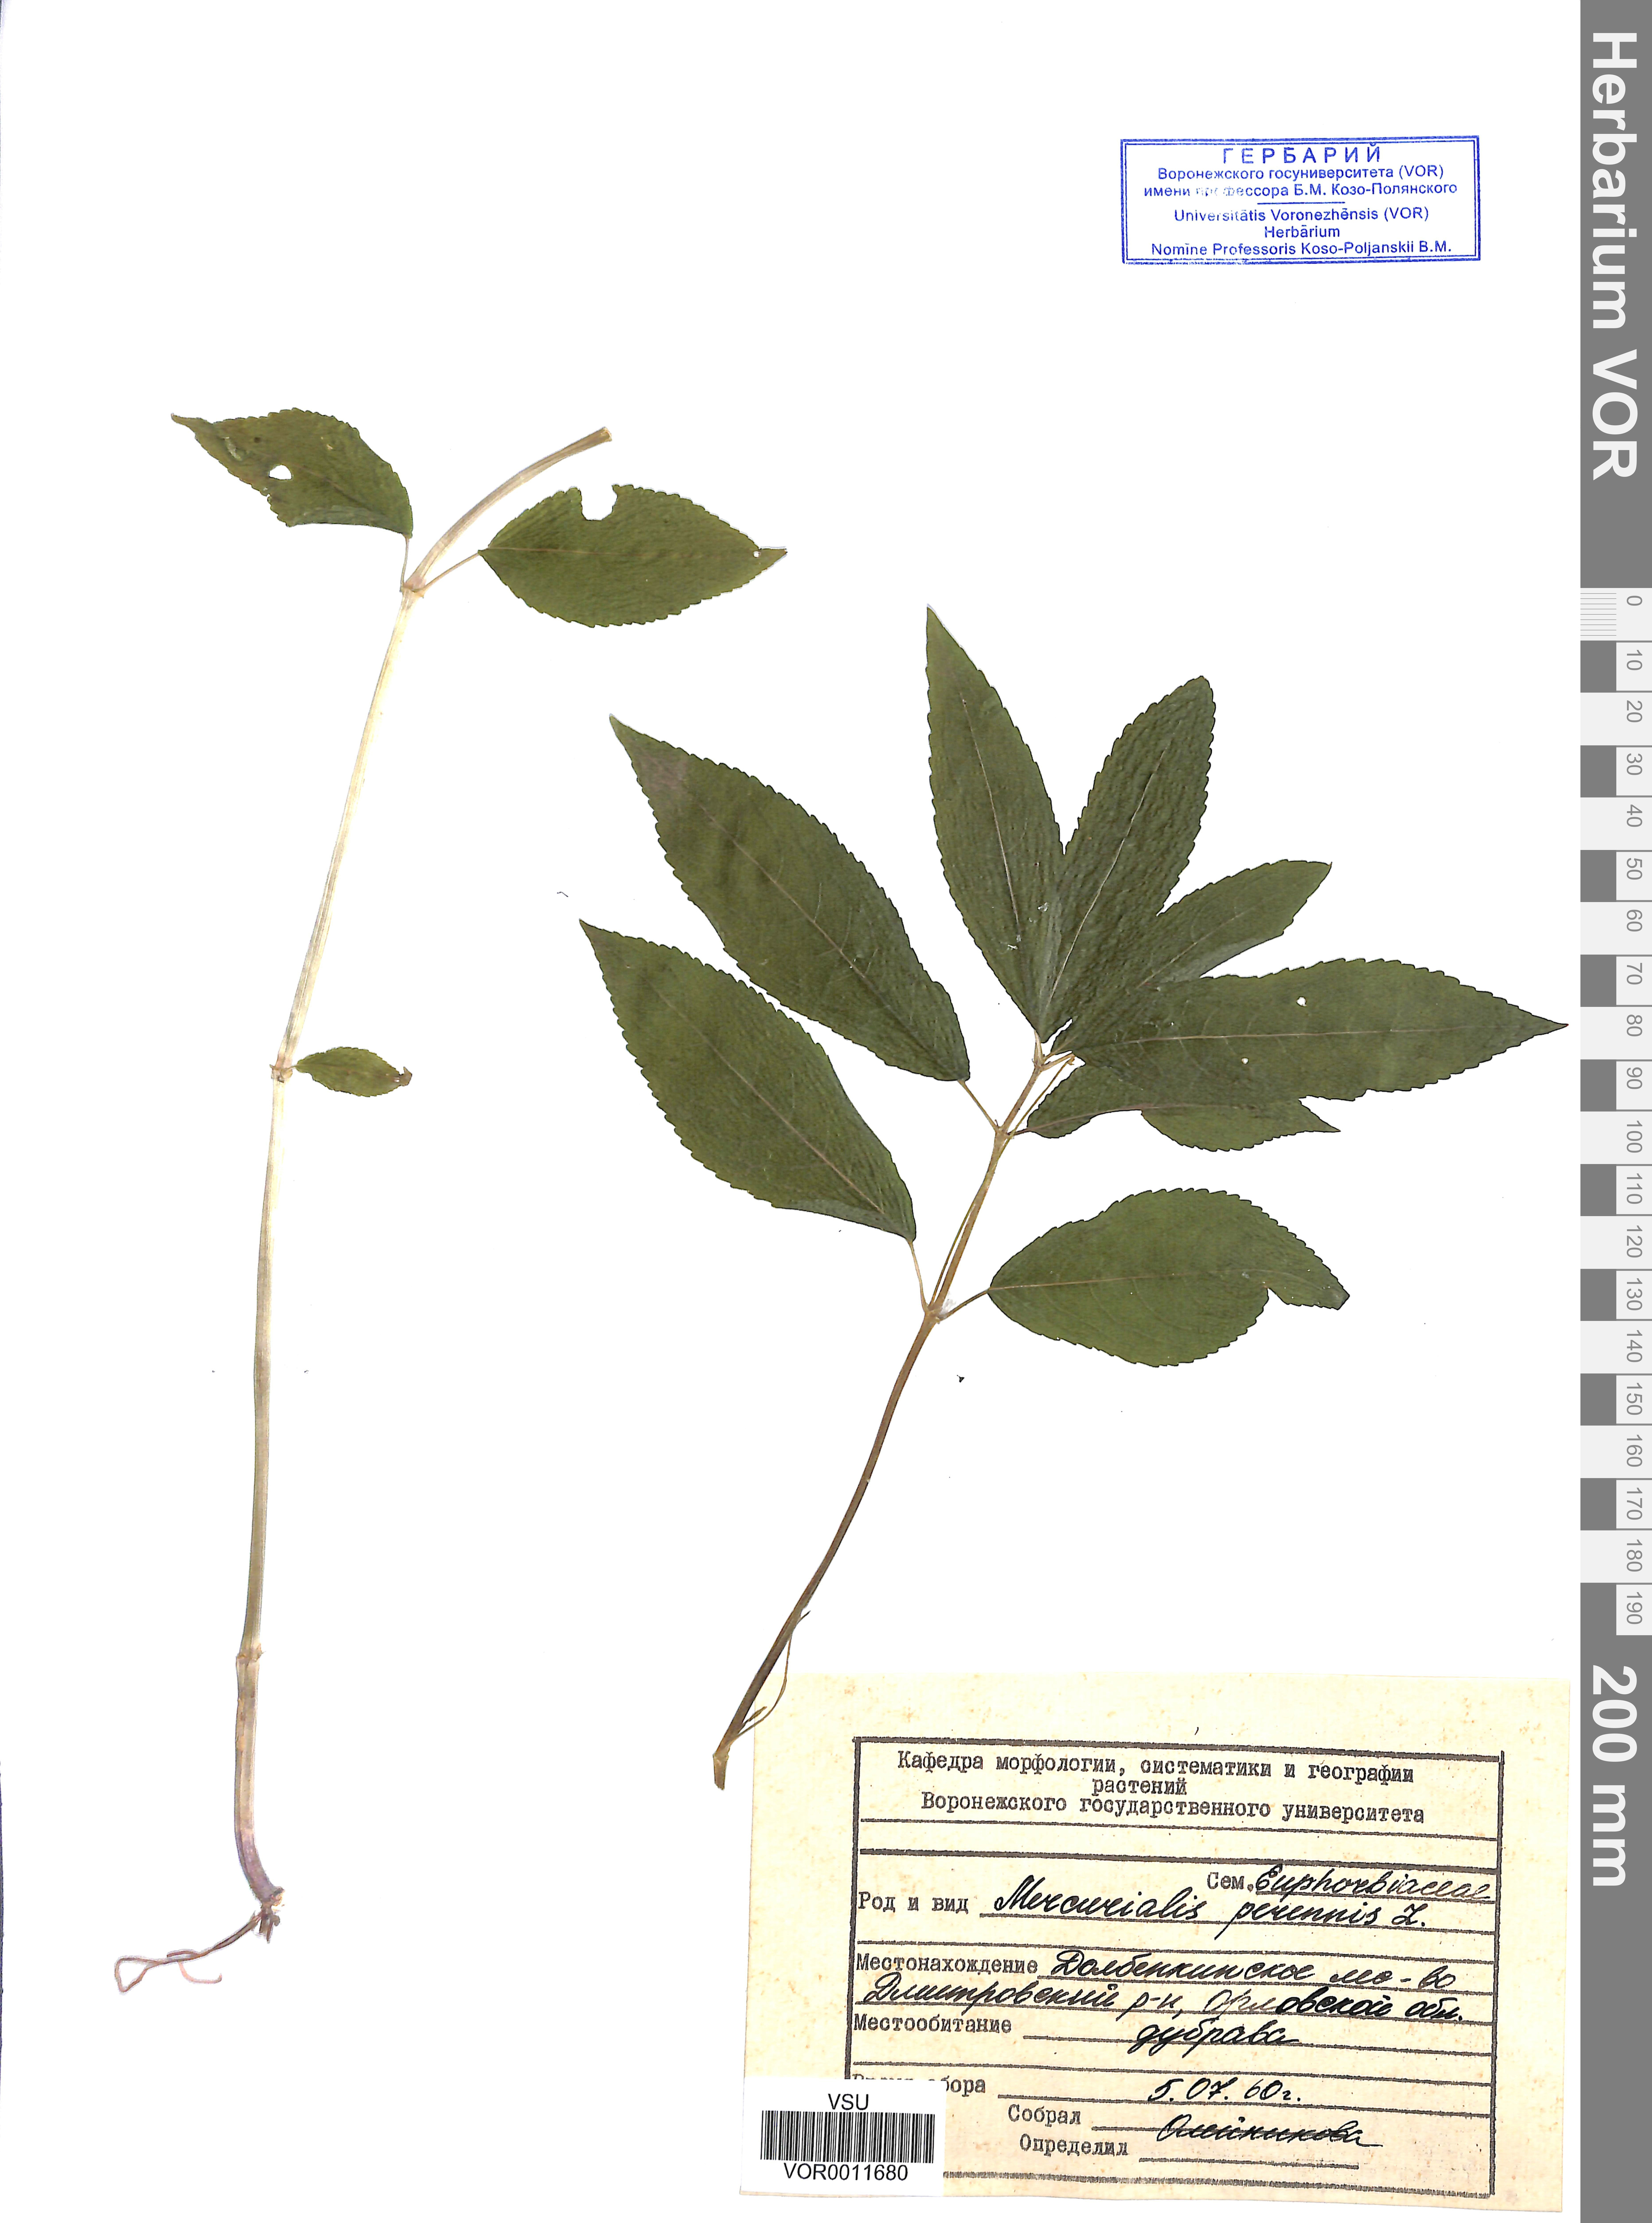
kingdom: Plantae
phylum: Tracheophyta
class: Magnoliopsida
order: Malpighiales
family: Euphorbiaceae
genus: Mercurialis
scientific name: Mercurialis perennis
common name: Dog mercury
